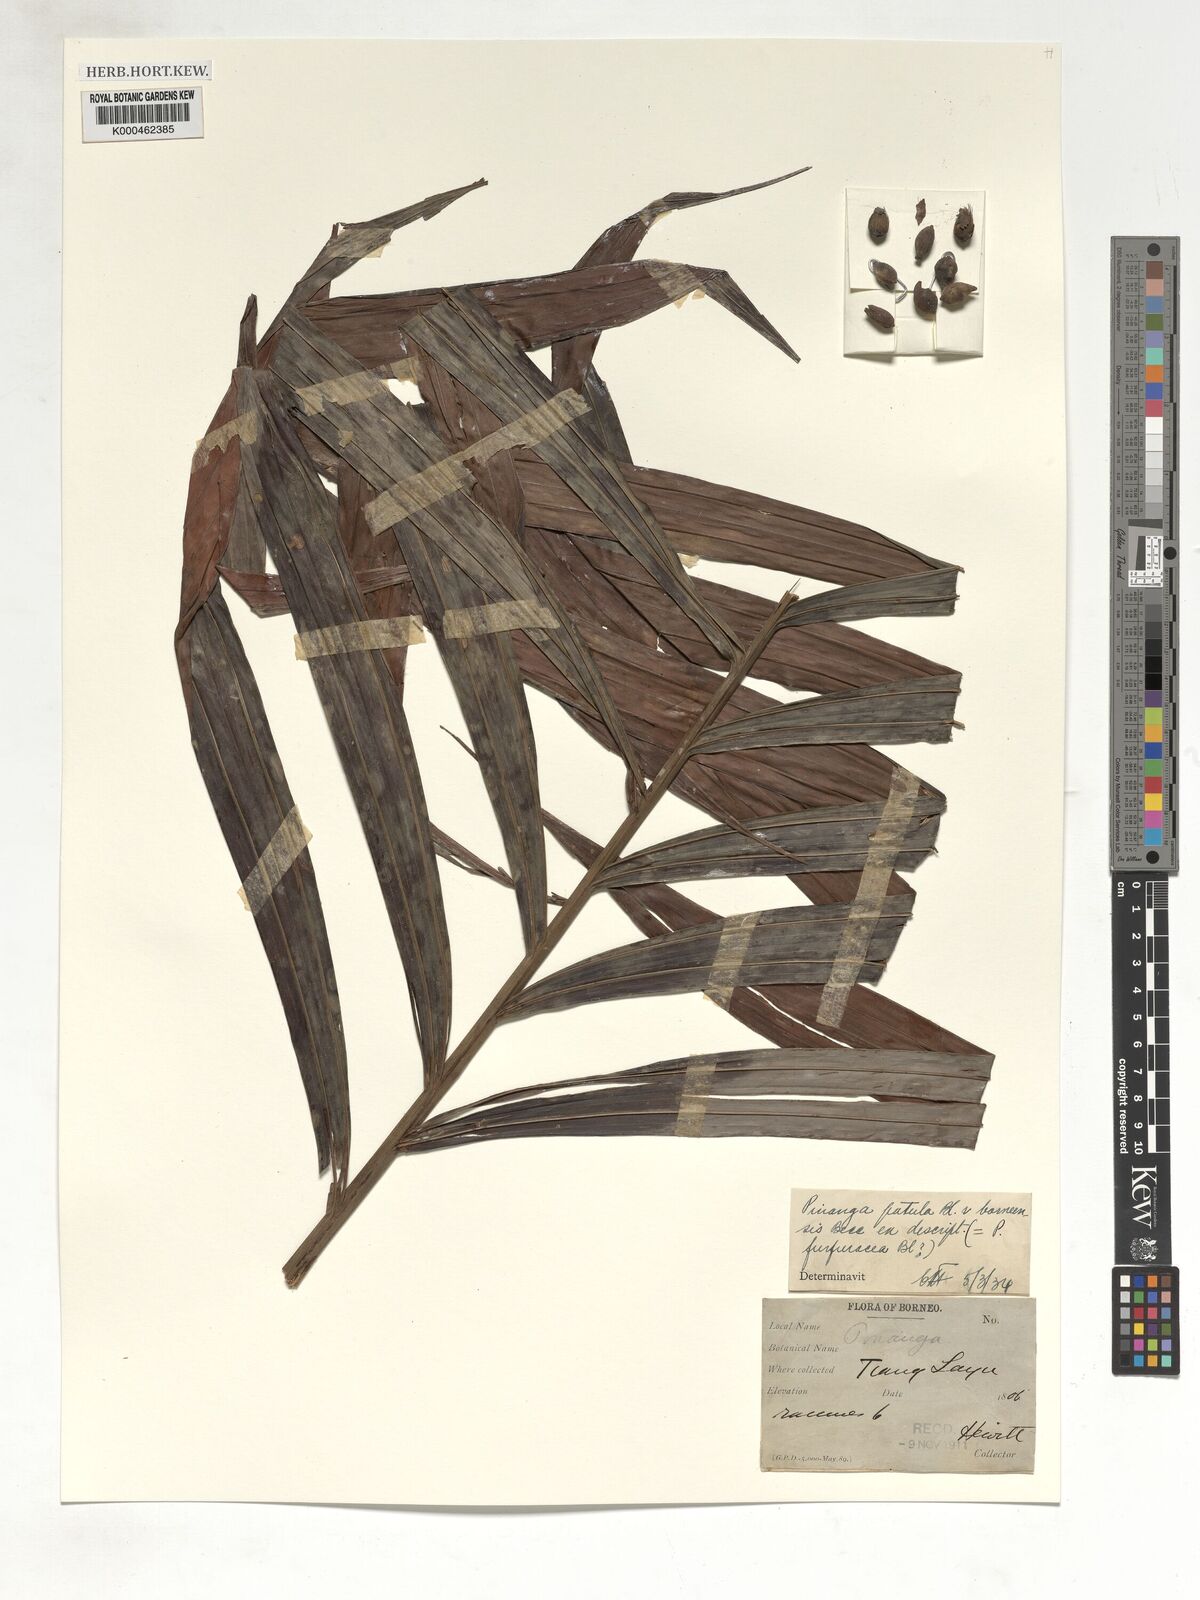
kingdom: Plantae
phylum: Tracheophyta
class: Liliopsida
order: Arecales
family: Arecaceae
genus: Pinanga
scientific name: Pinanga patula
